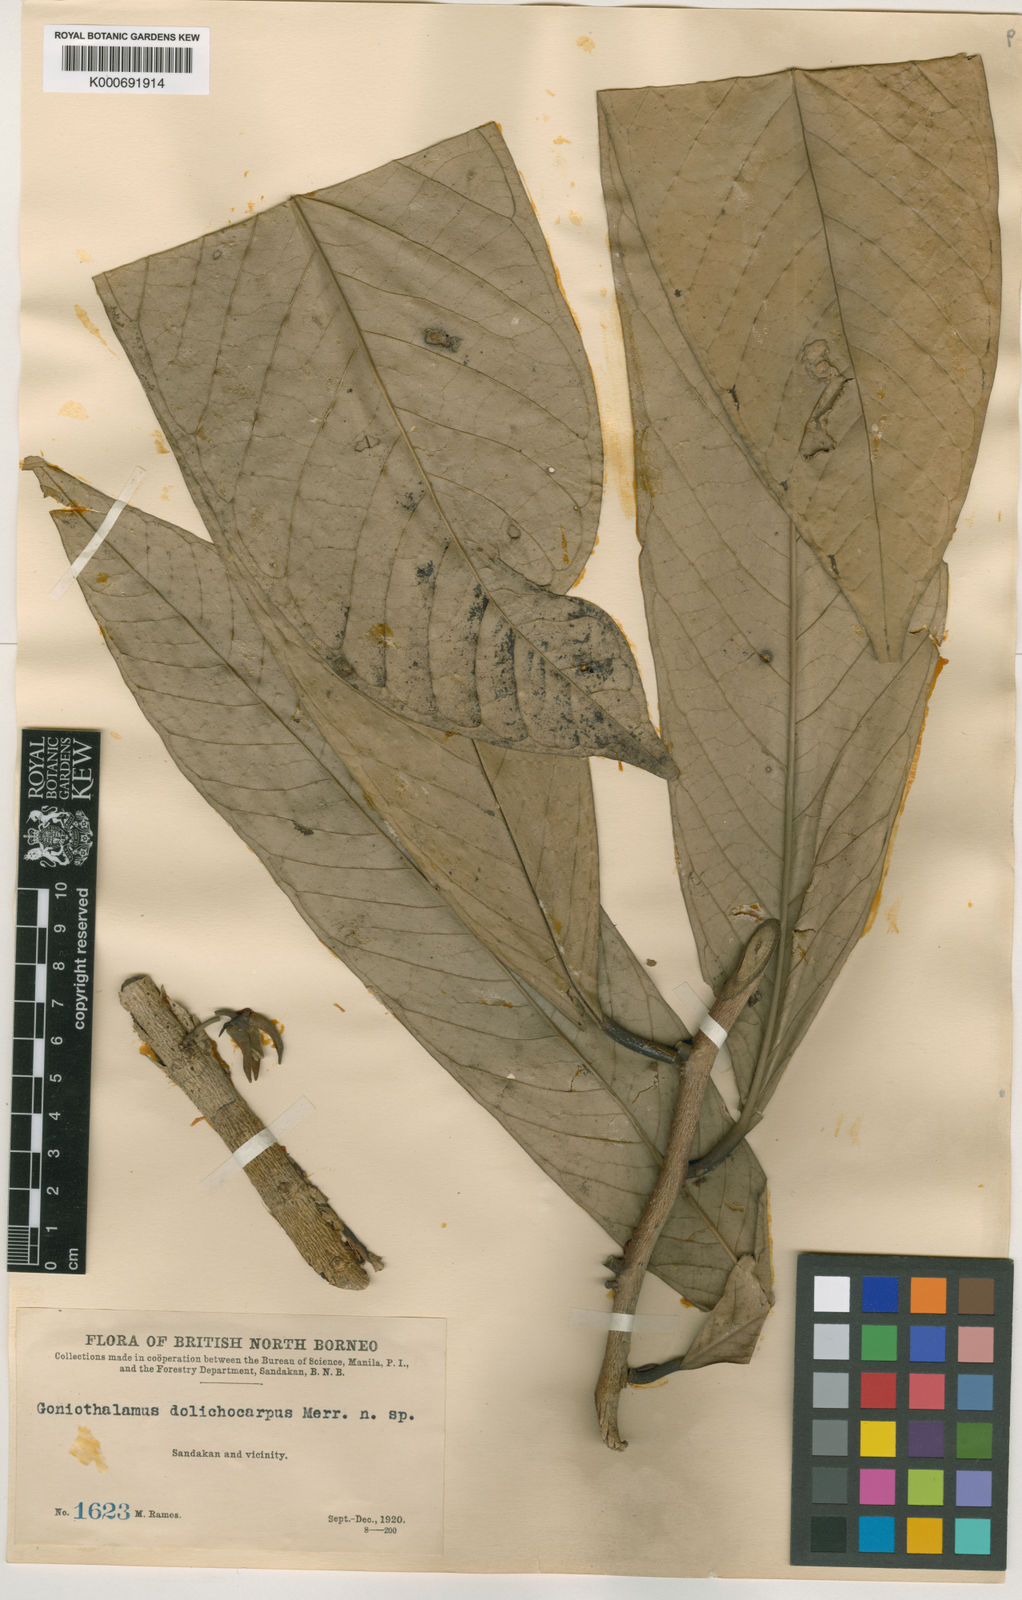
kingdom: Plantae
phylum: Tracheophyta
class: Magnoliopsida
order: Magnoliales
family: Annonaceae
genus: Goniothalamus
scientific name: Goniothalamus dolichocarpus
